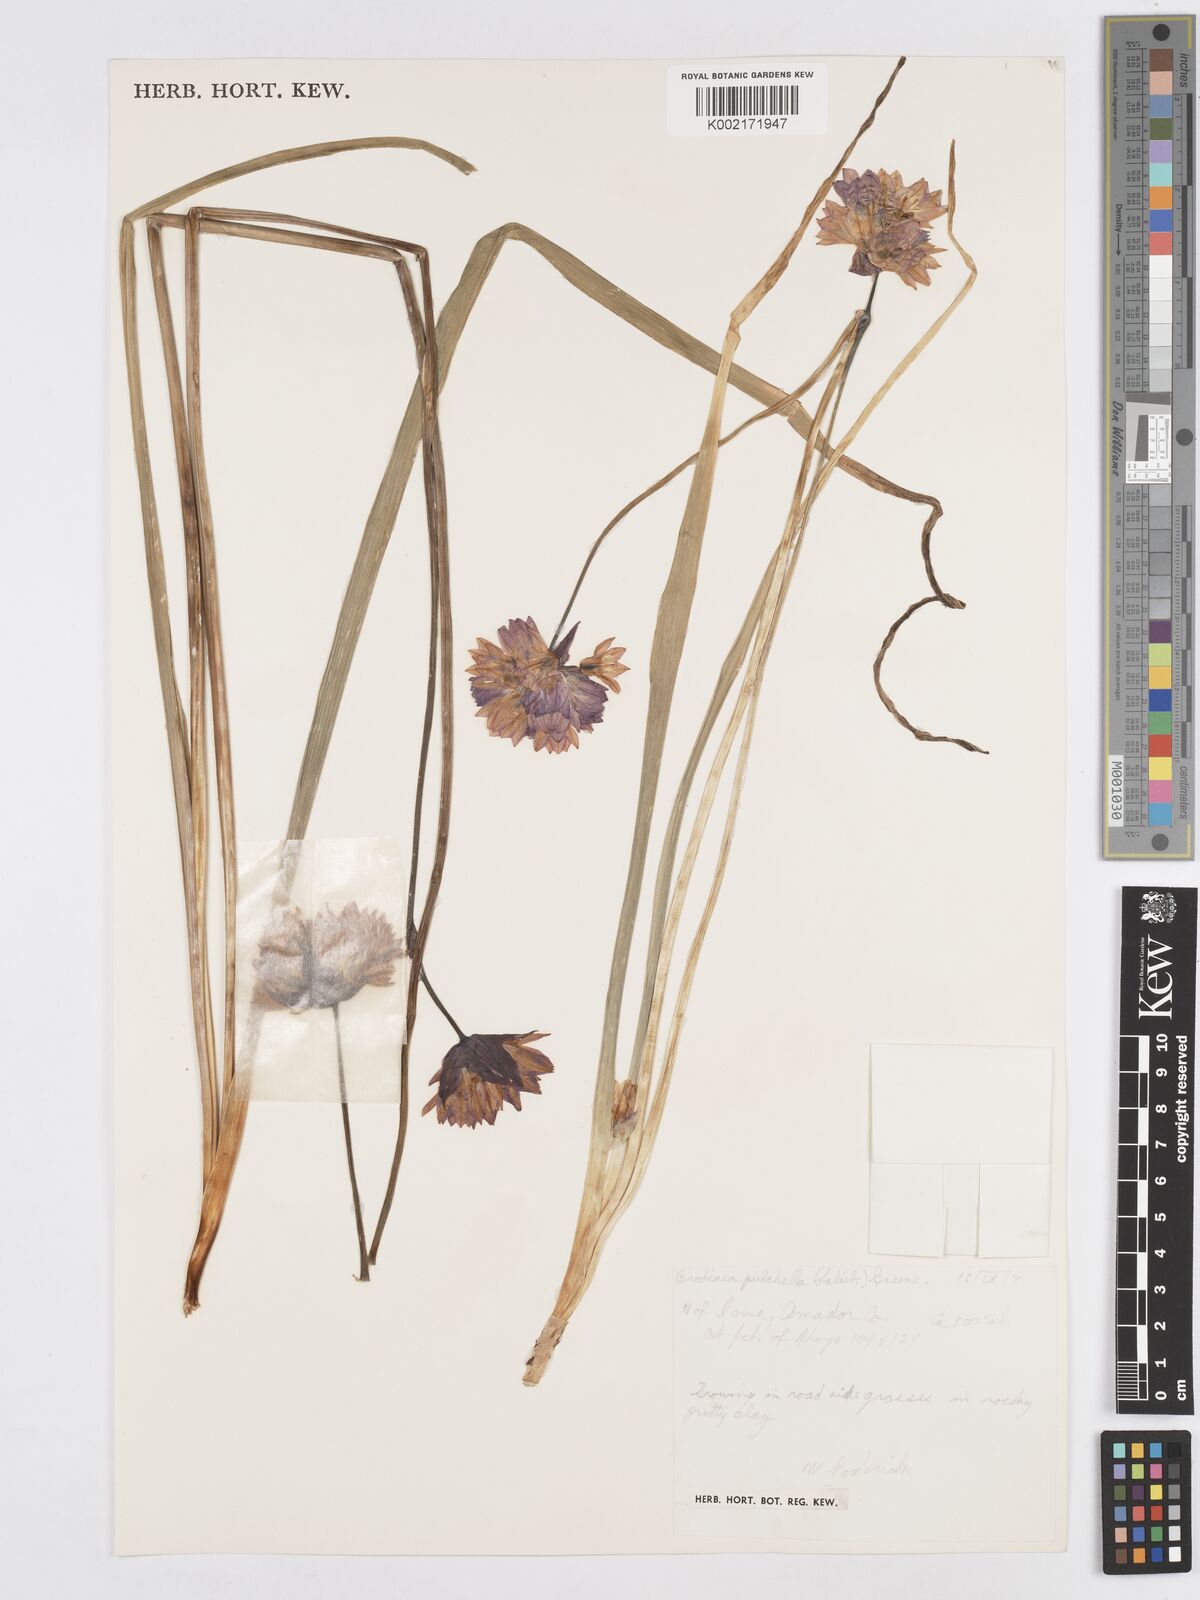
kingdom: Plantae
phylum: Tracheophyta
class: Liliopsida
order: Asparagales
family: Asparagaceae
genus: Dichelostemma
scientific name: Dichelostemma congestum
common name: Fork-tooth ookow
